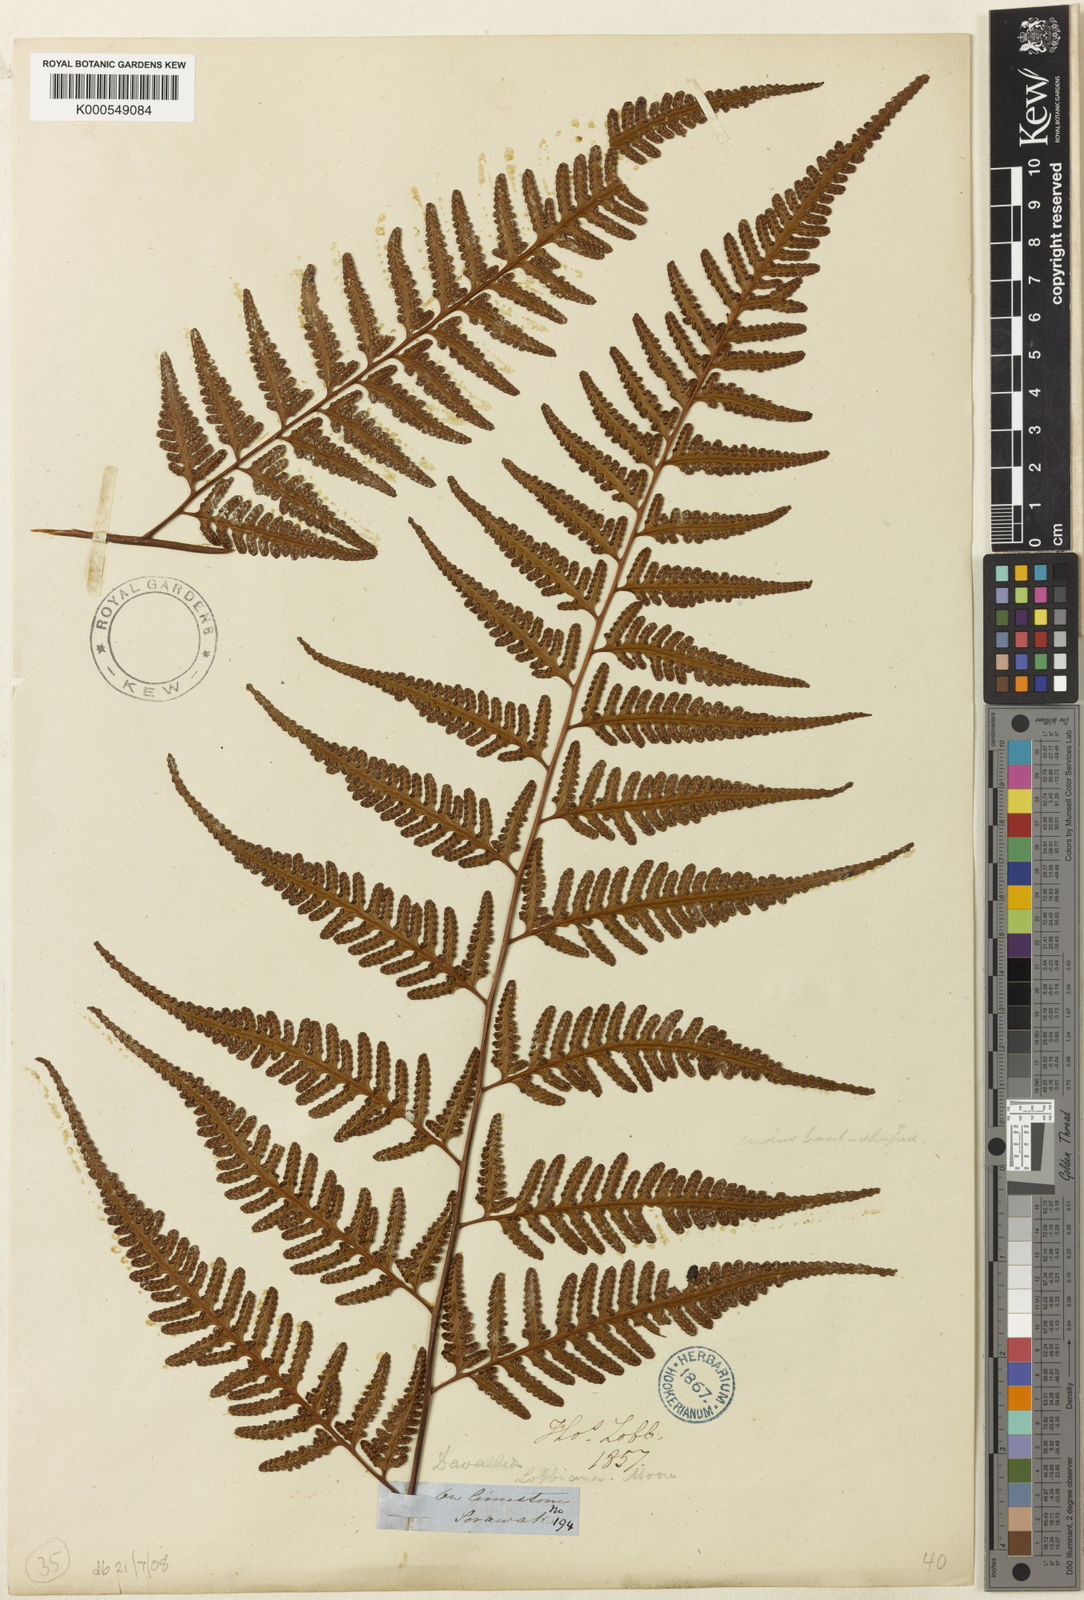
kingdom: Plantae
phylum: Tracheophyta
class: Polypodiopsida
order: Polypodiales
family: Davalliaceae
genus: Davallia
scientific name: Davallia divaricata
